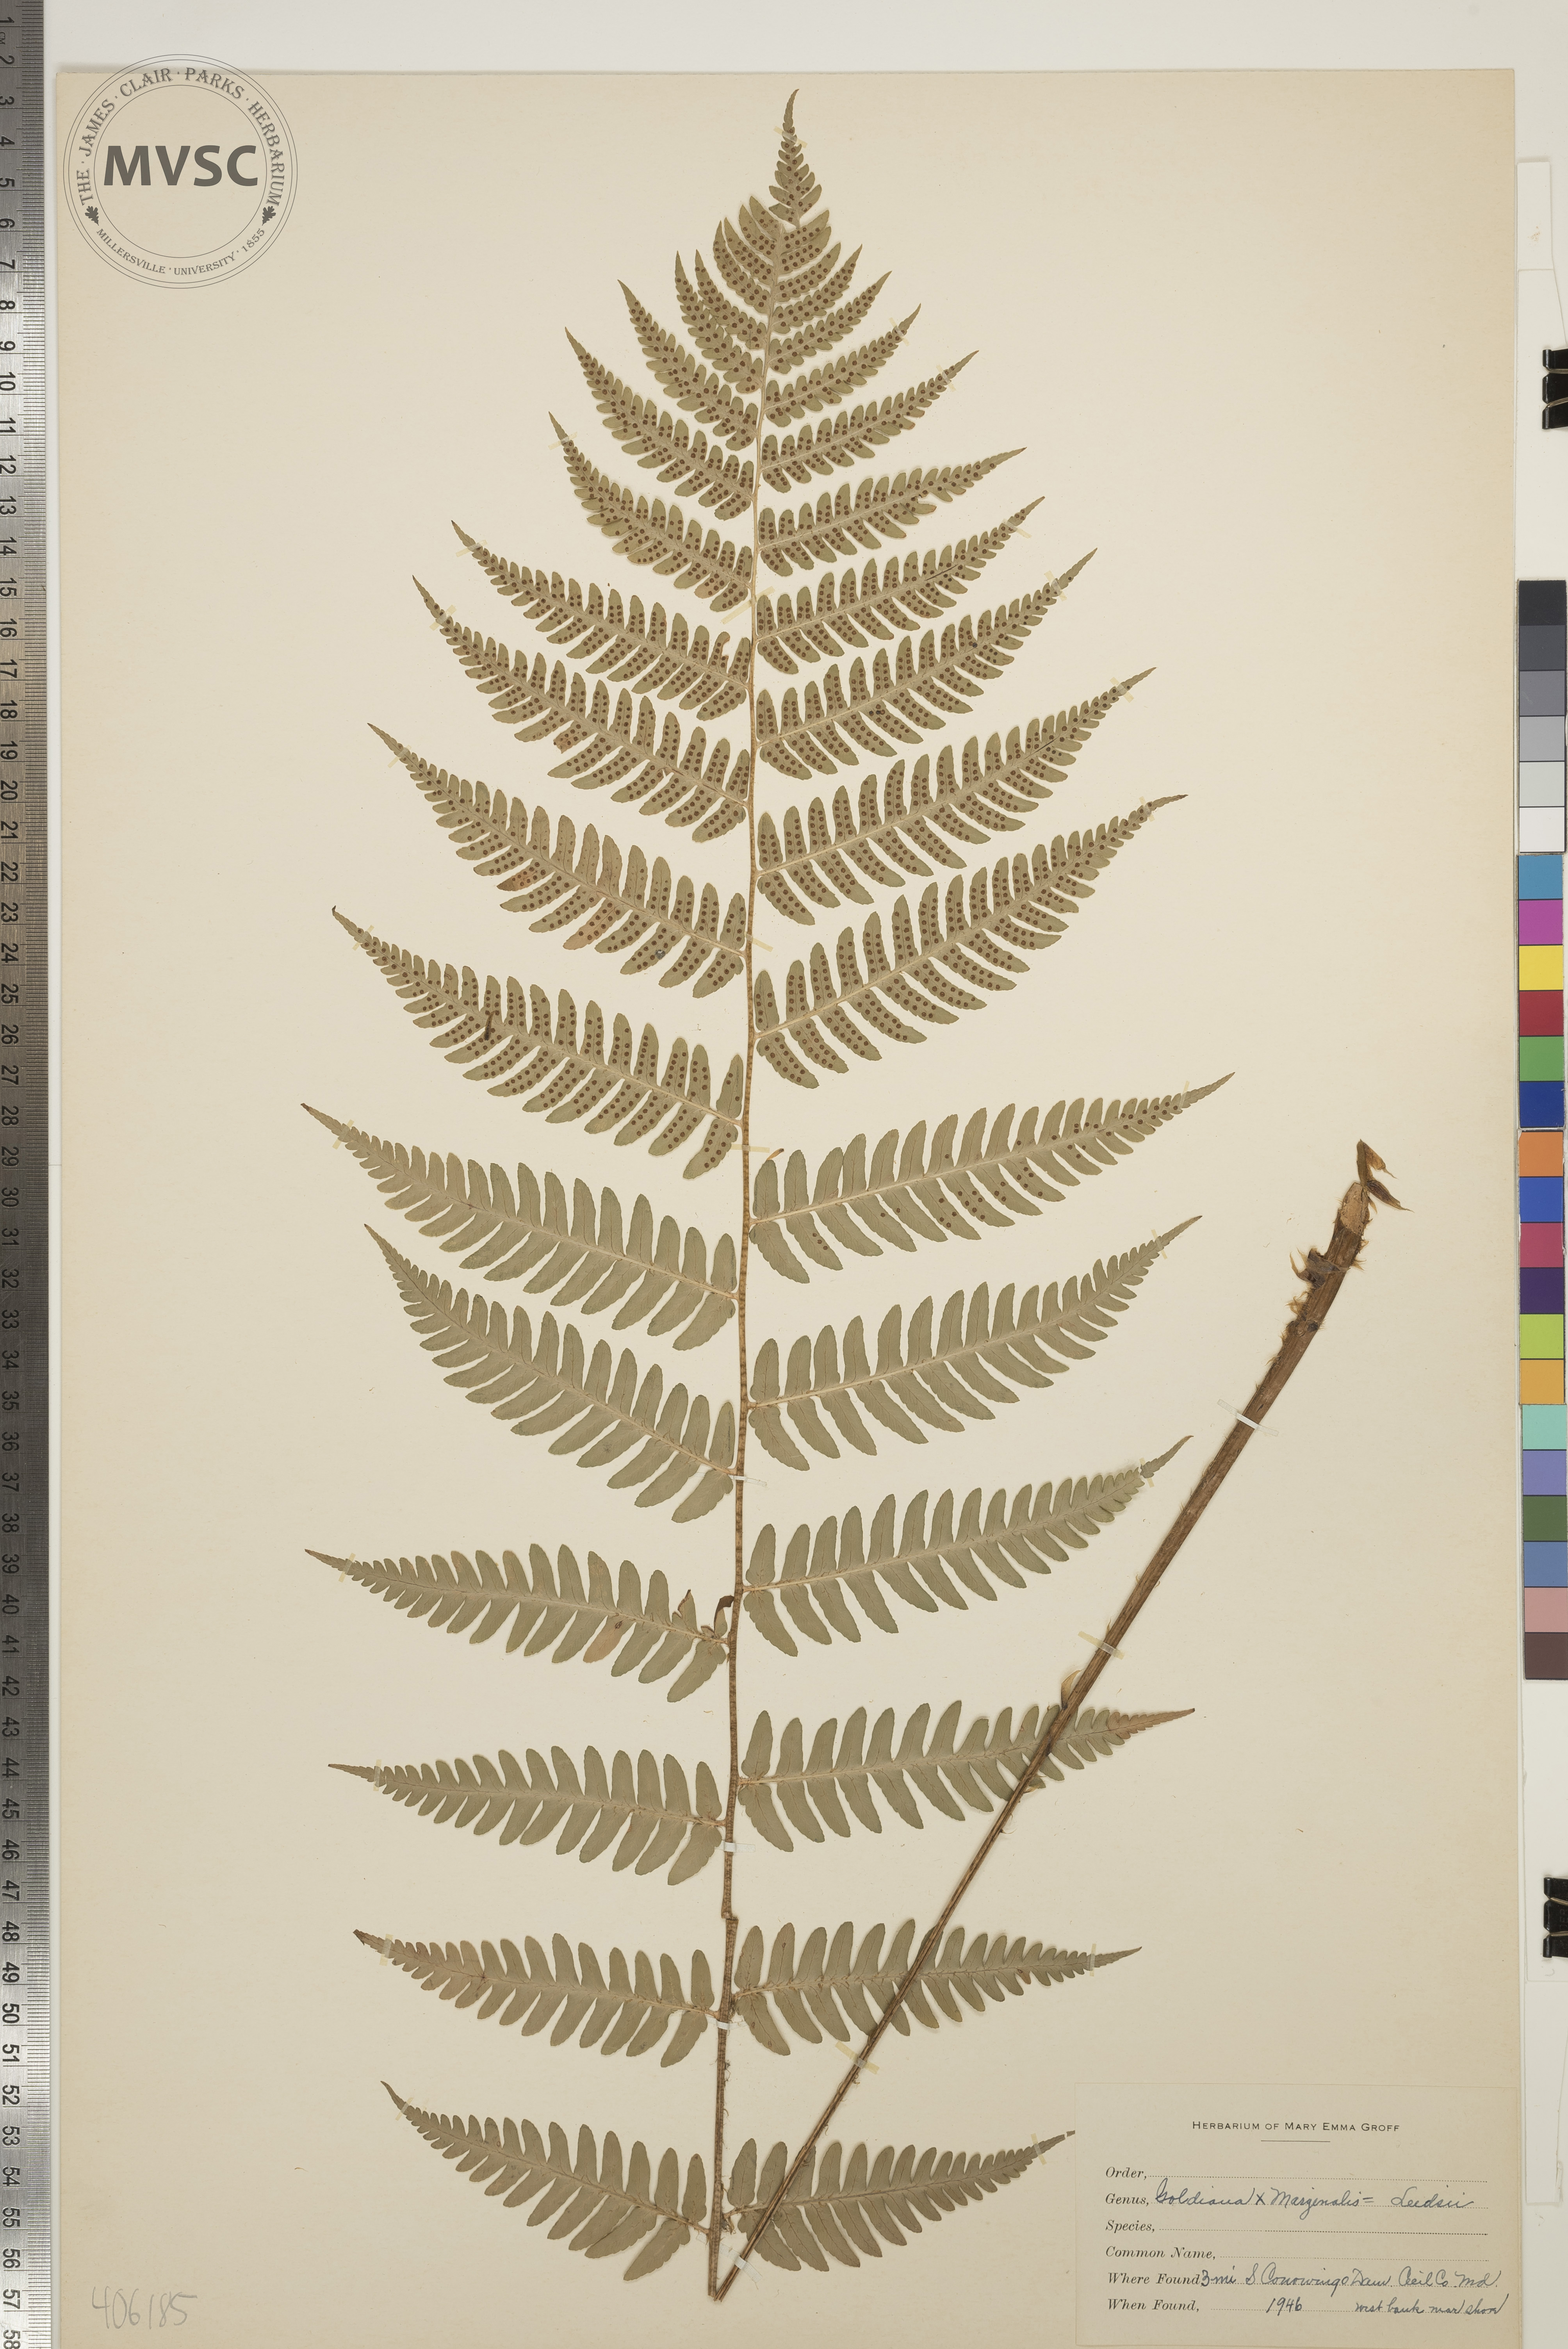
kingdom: Plantae
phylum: Tracheophyta
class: Polypodiopsida
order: Polypodiales
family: Dryopteridaceae
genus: Dryopteris
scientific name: Dryopteris
